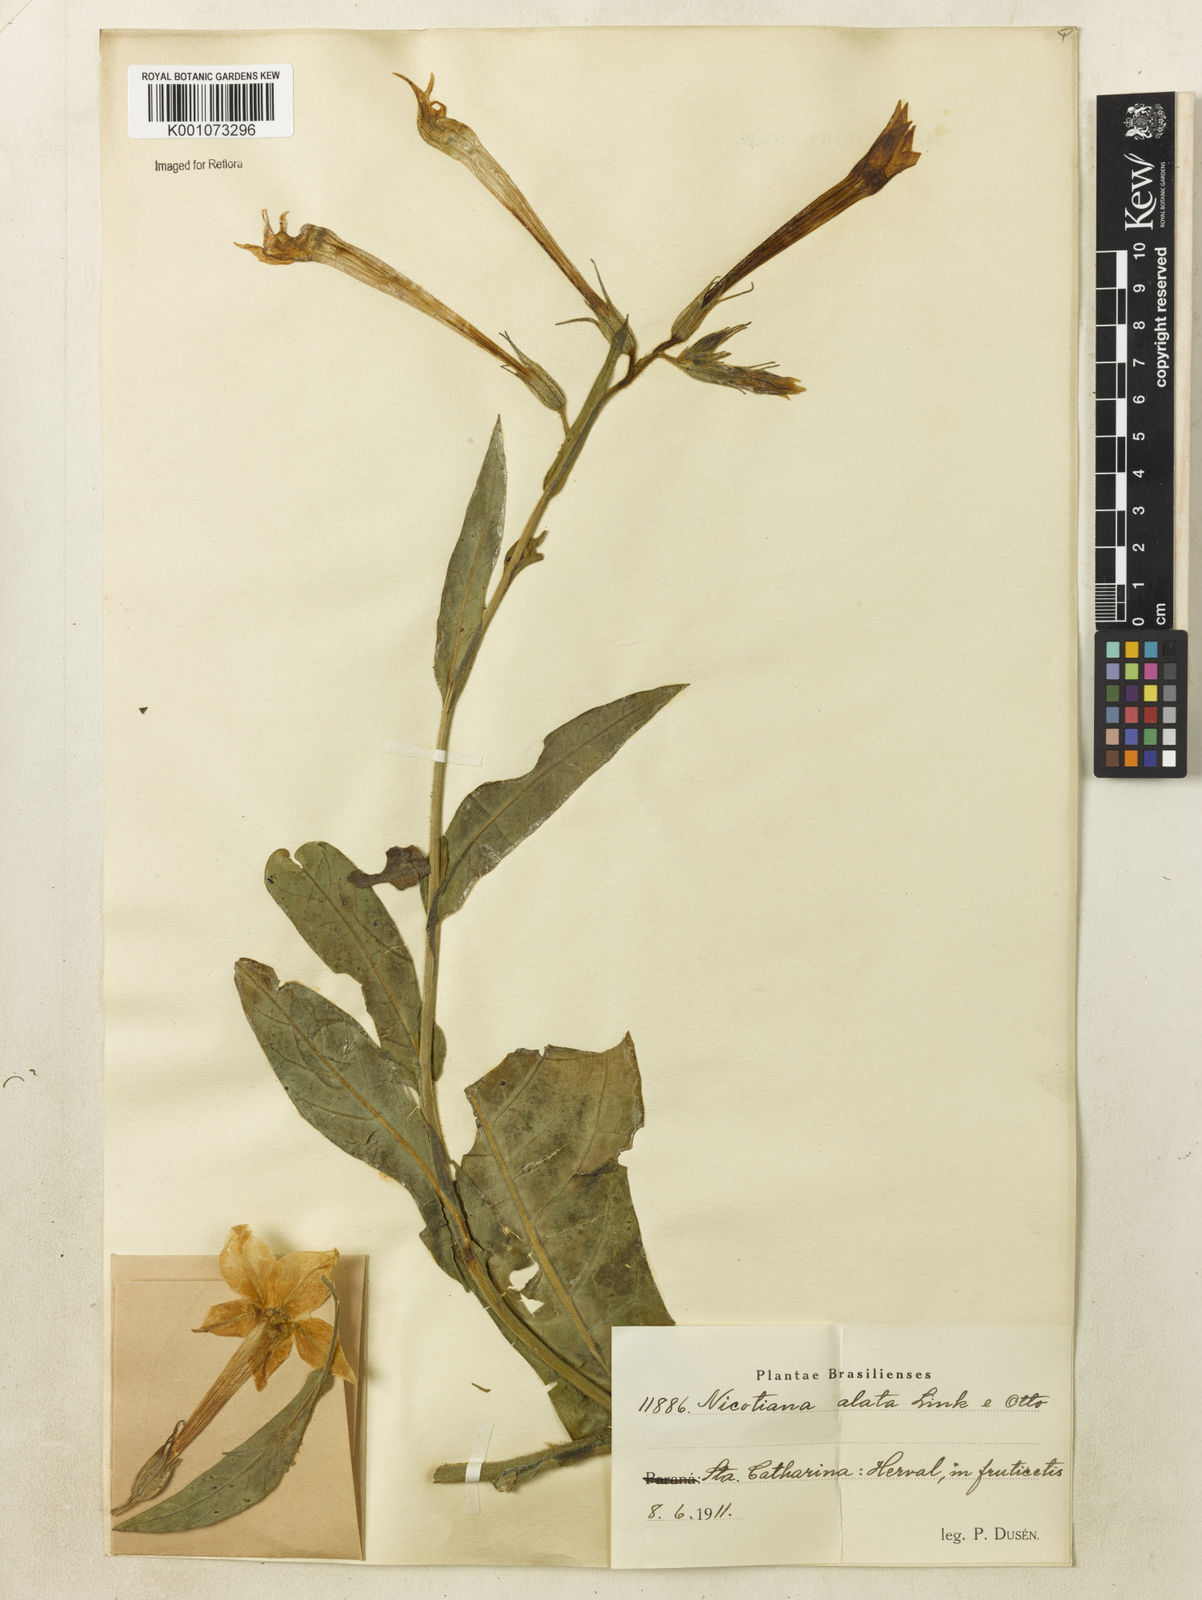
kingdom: Plantae
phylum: Tracheophyta
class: Magnoliopsida
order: Solanales
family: Solanaceae
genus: Nicotiana
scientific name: Nicotiana alata
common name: Jasmine tobacco
